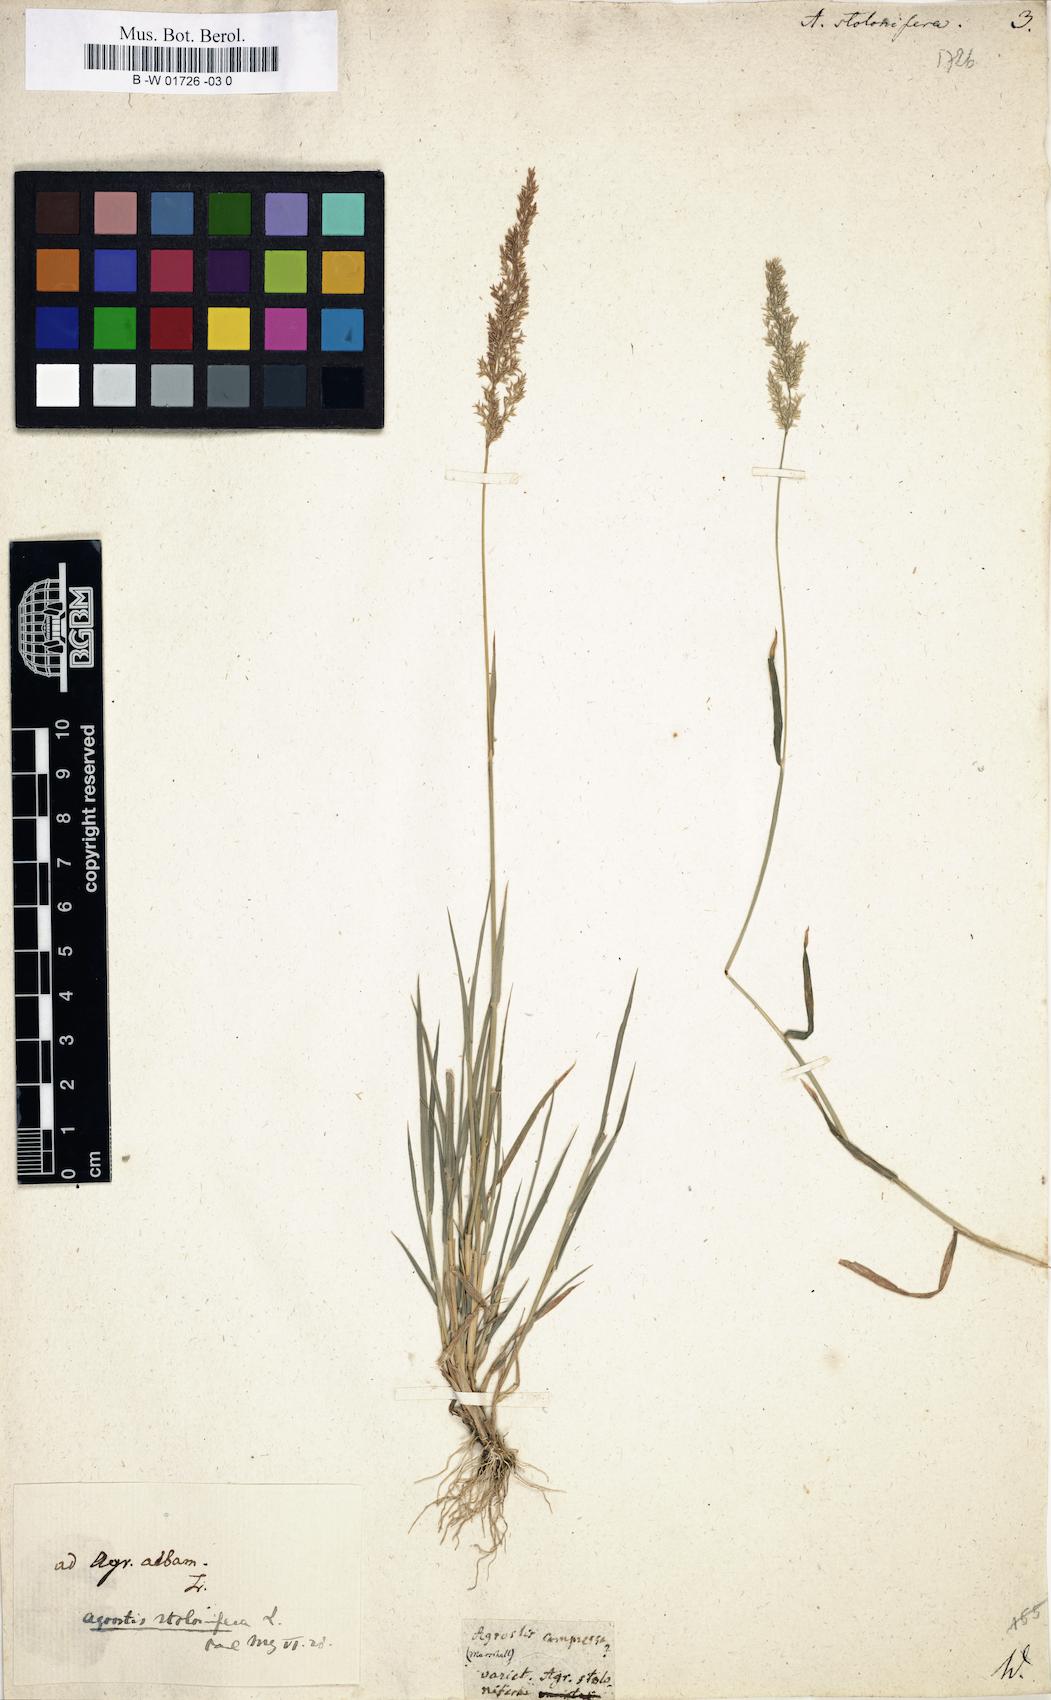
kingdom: Plantae
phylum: Tracheophyta
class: Liliopsida
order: Poales
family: Poaceae
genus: Agrostis
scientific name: Agrostis stolonifera
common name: Creeping bentgrass
